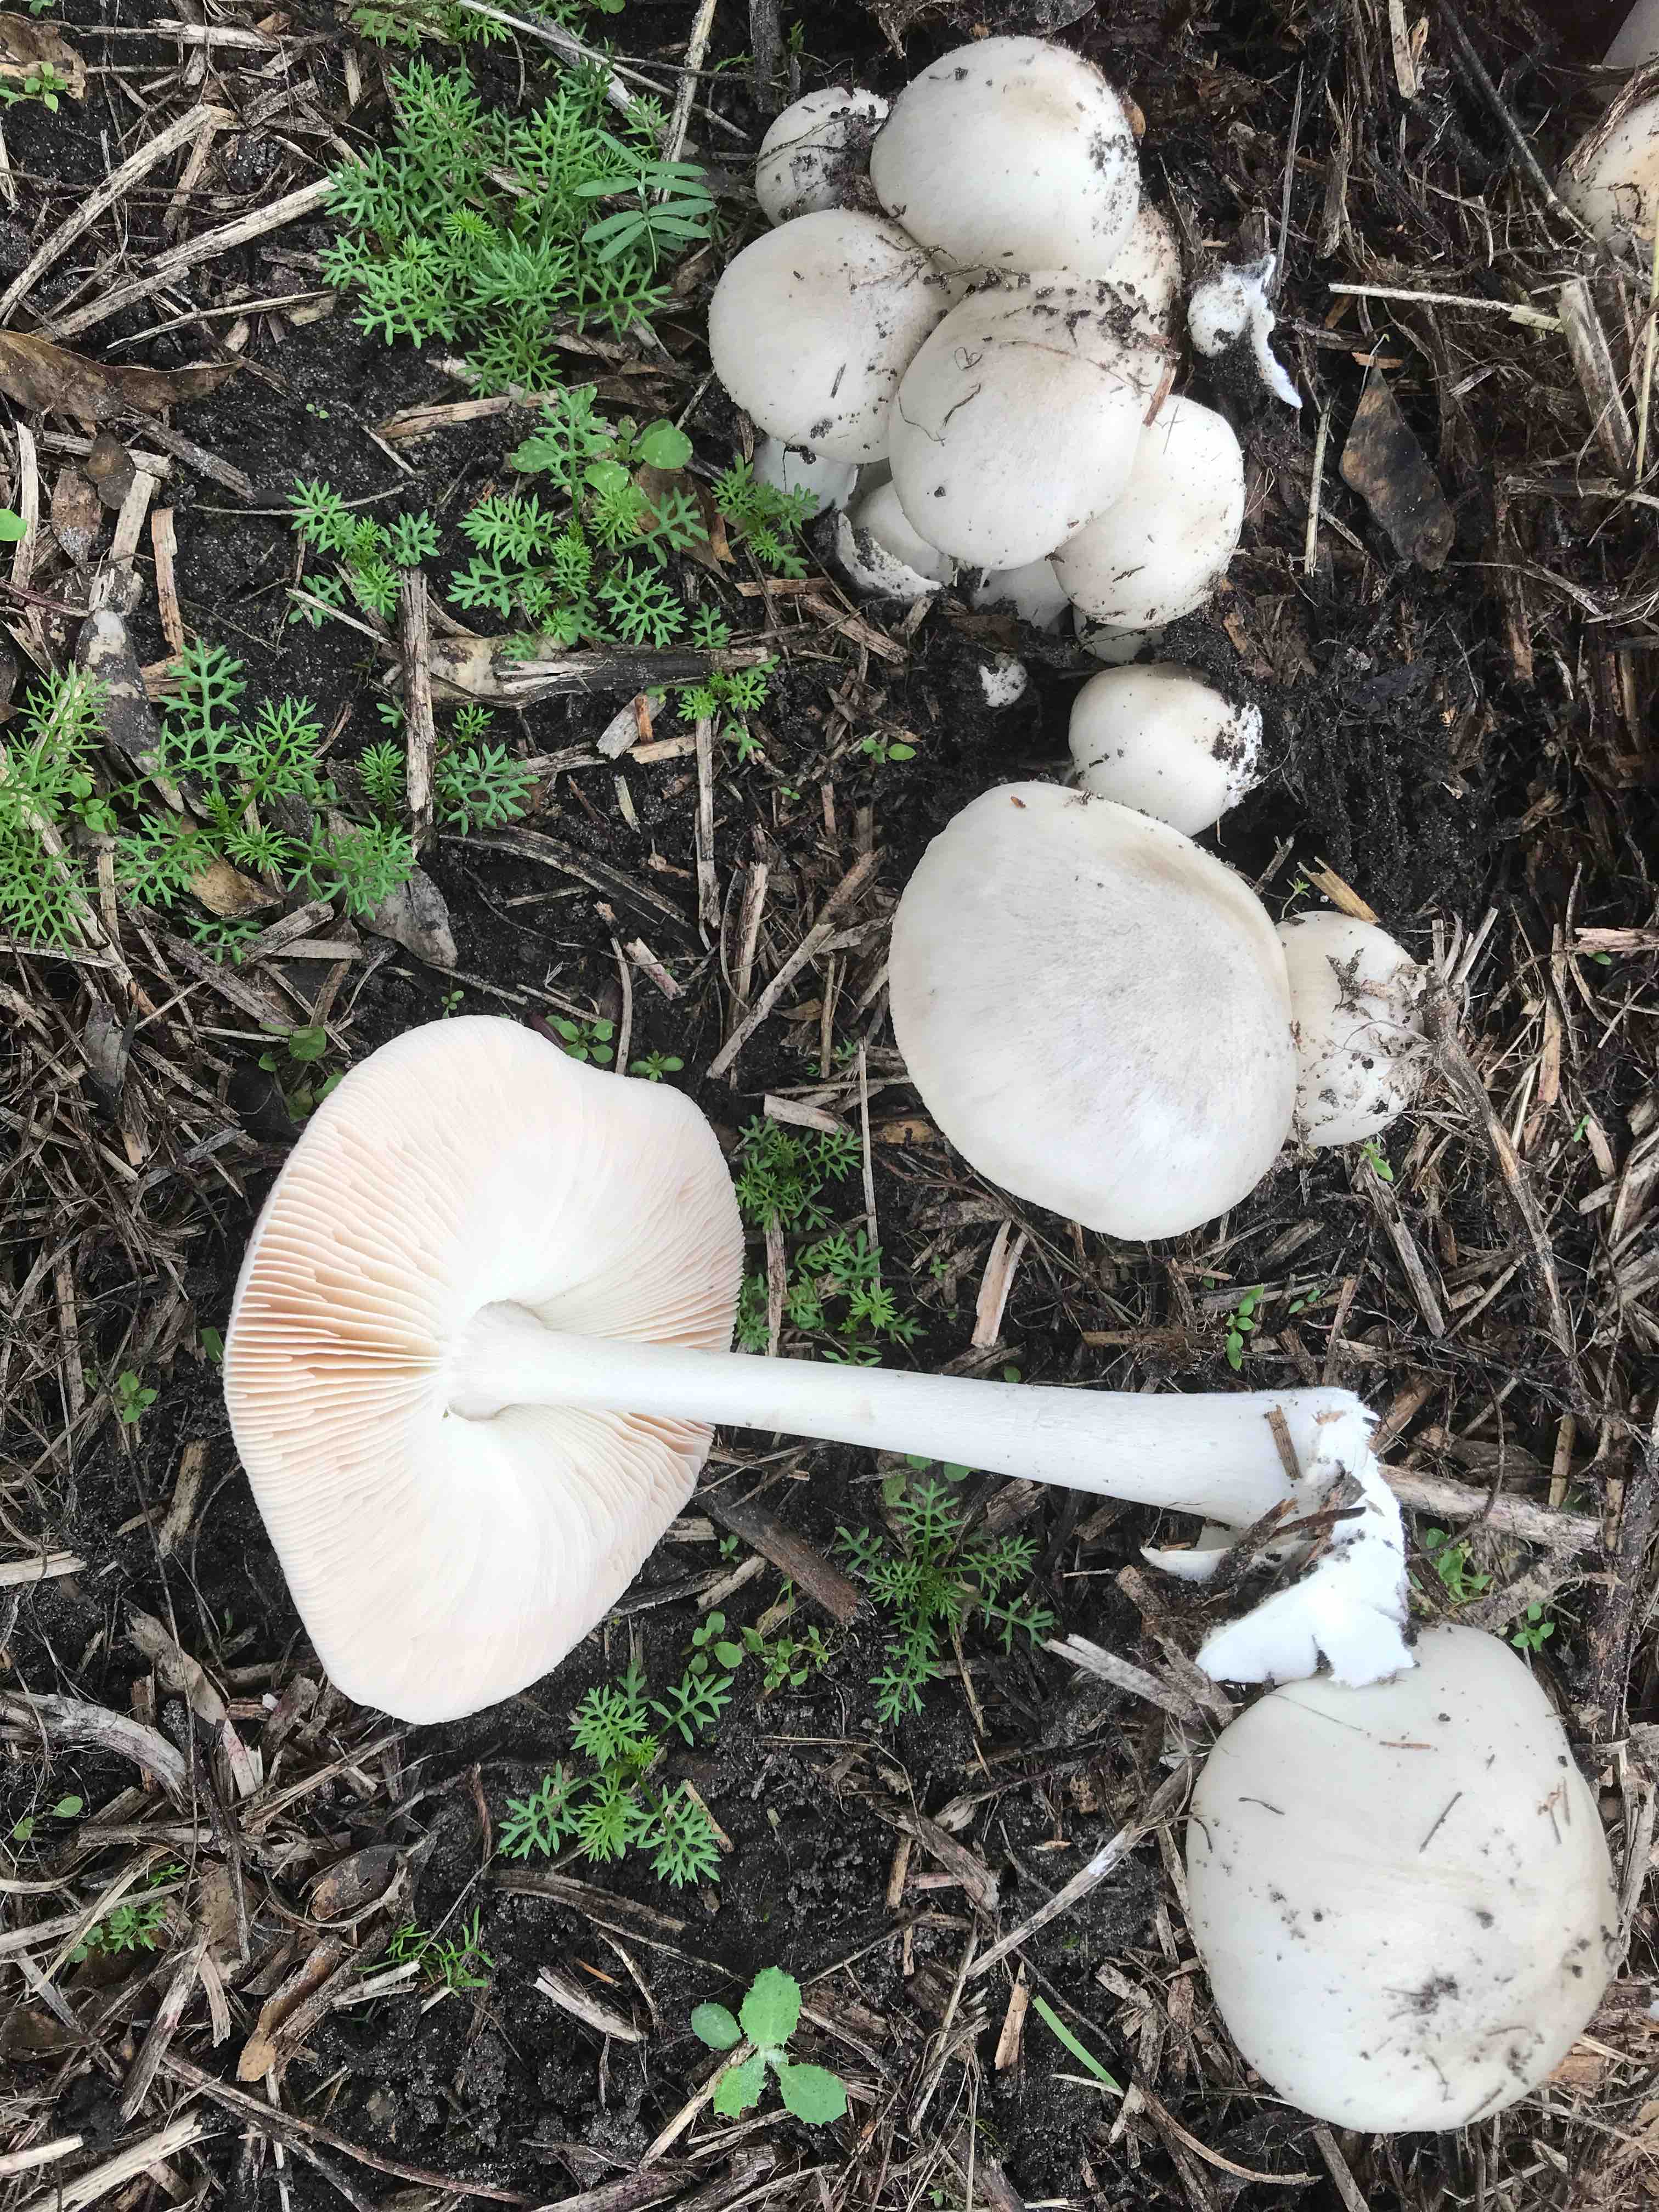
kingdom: Fungi
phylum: Basidiomycota
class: Agaricomycetes
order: Agaricales
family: Pluteaceae
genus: Volvopluteus
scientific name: Volvopluteus gloiocephalus
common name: høj posesvamp
